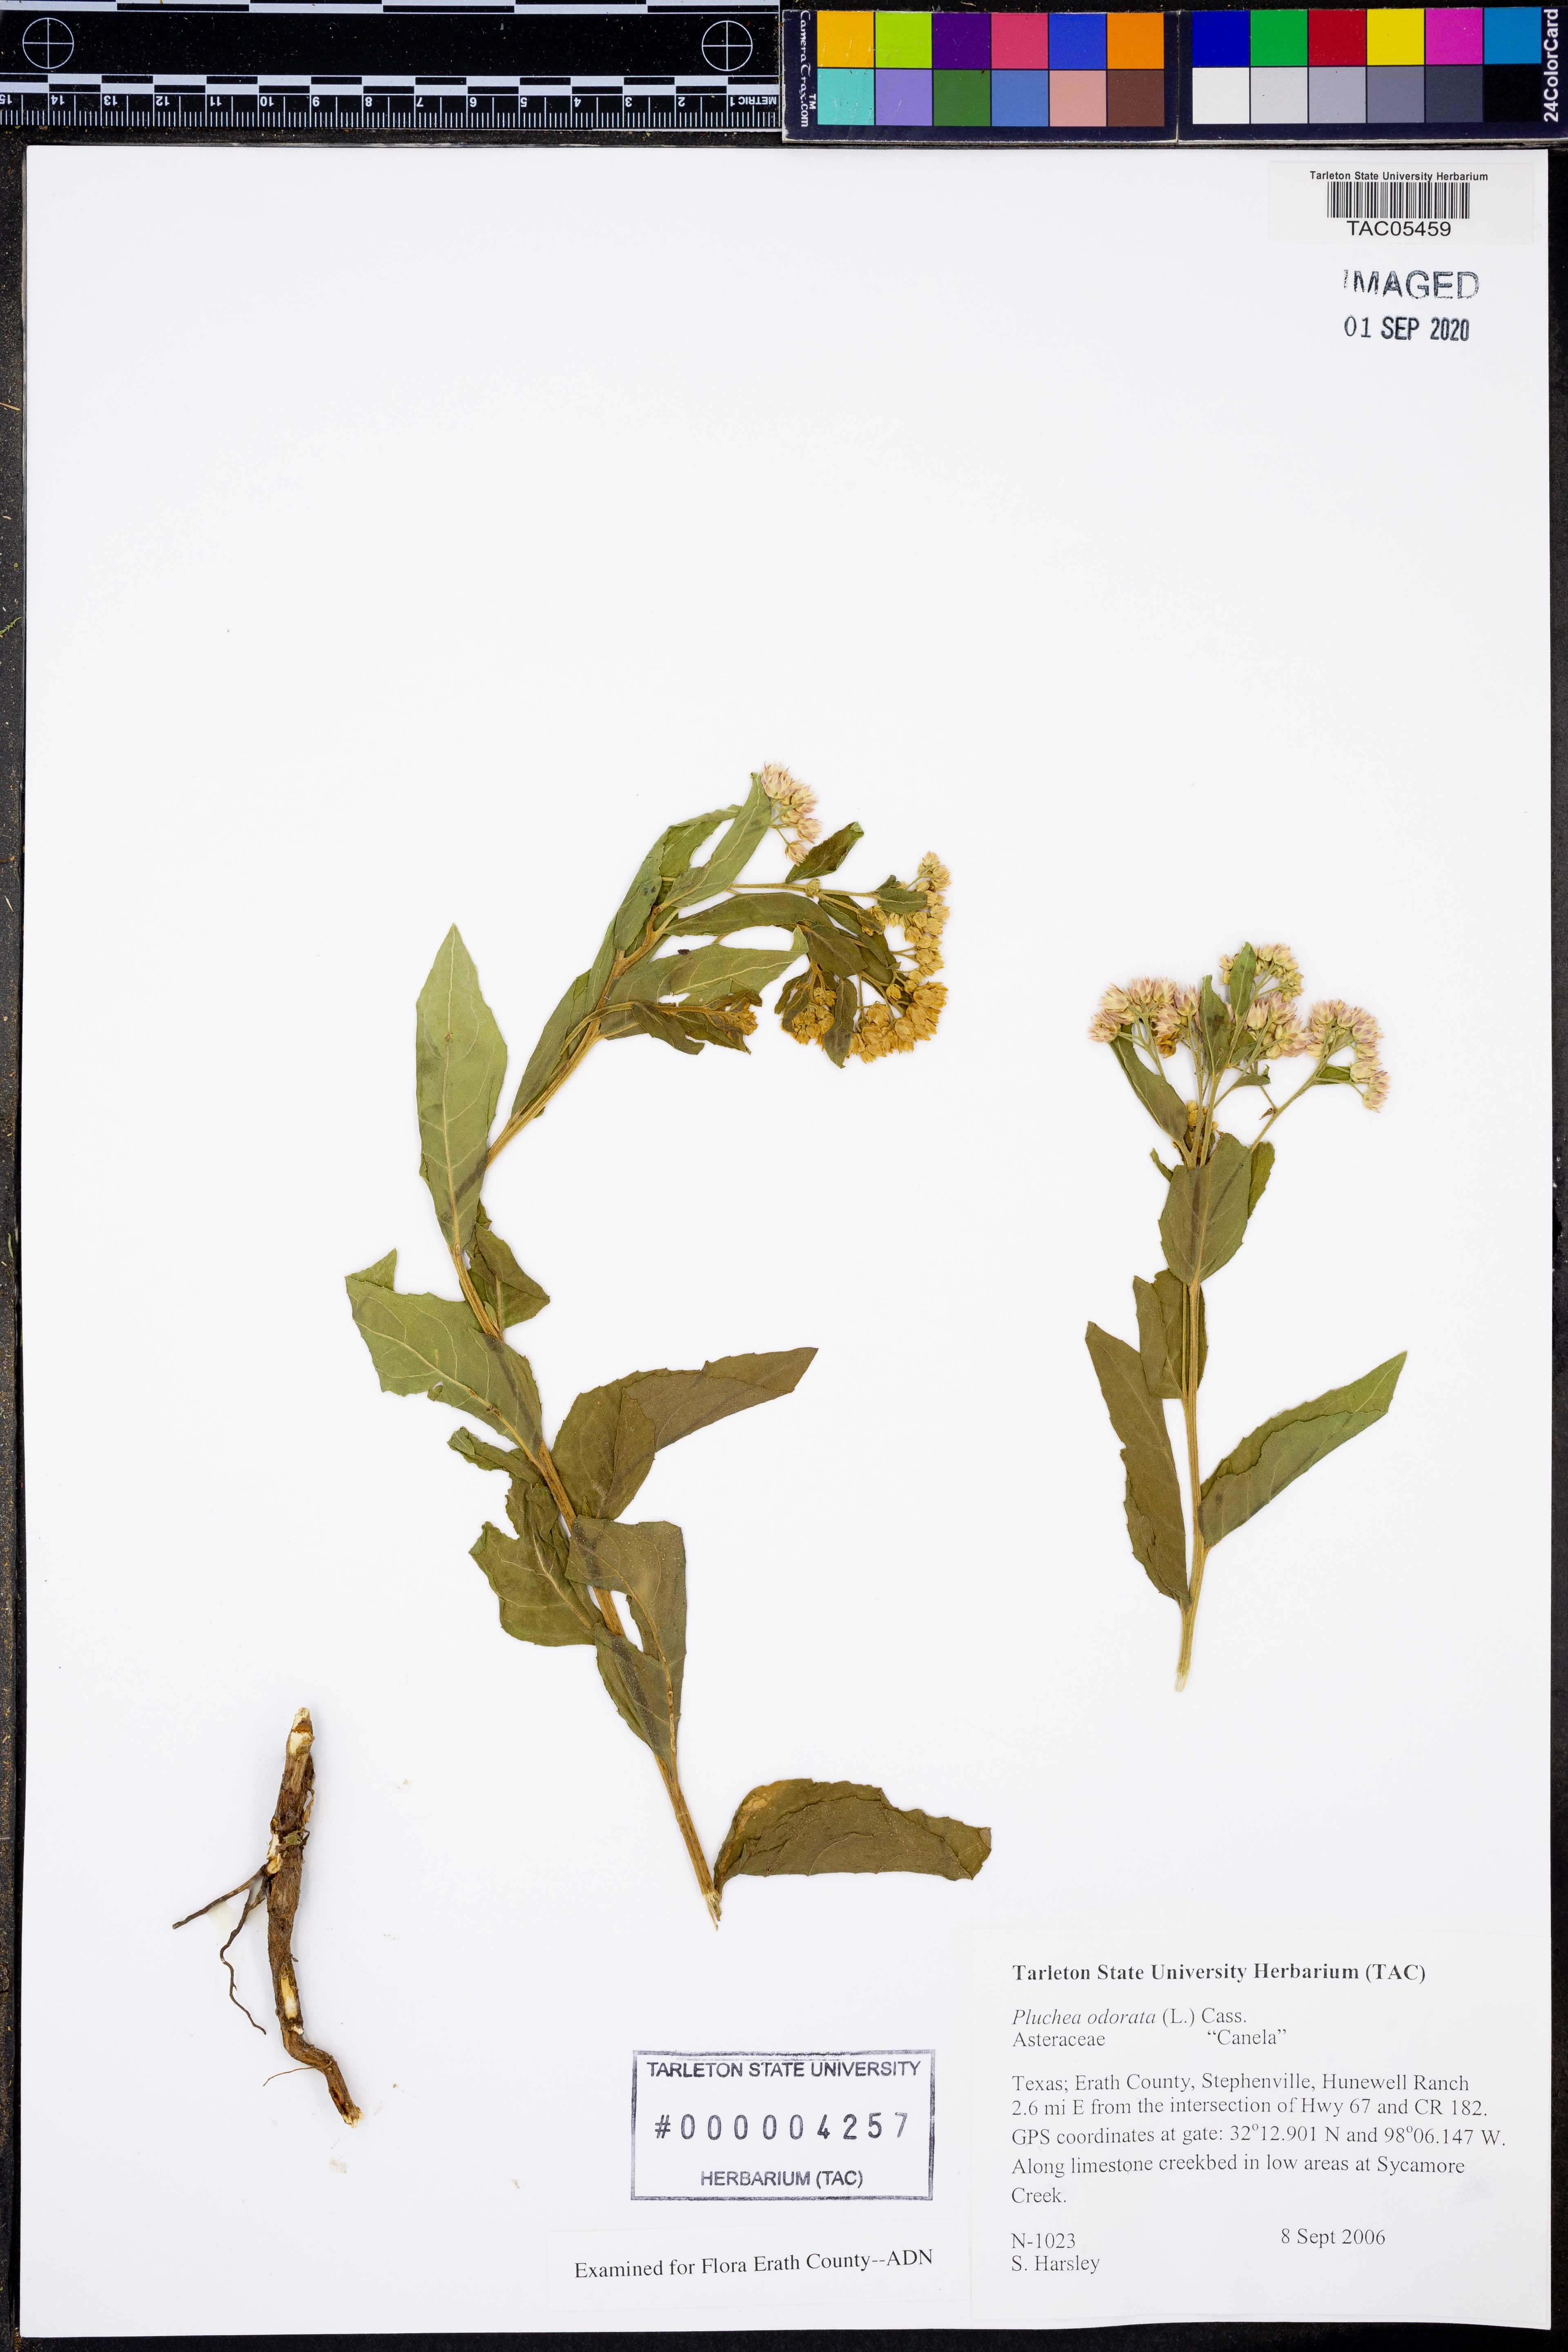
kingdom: Plantae
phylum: Tracheophyta
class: Magnoliopsida
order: Asterales
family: Asteraceae
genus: Pluchea
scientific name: Pluchea odorata
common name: Saltmarsh fleabane
